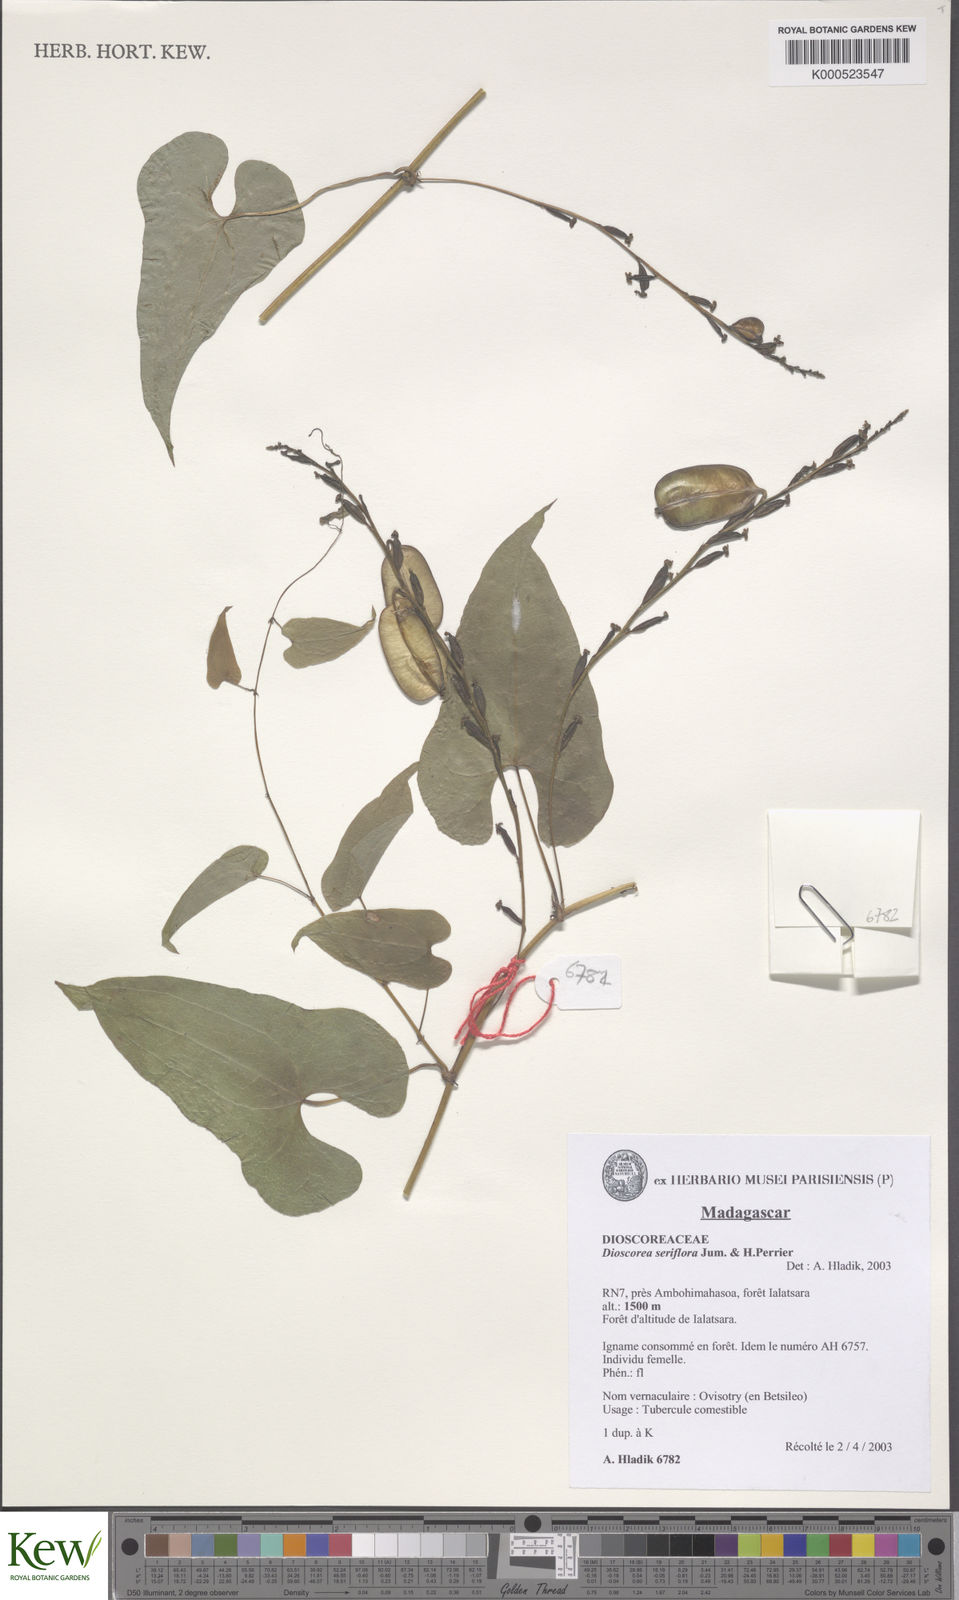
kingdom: Plantae
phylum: Tracheophyta
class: Liliopsida
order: Dioscoreales
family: Dioscoreaceae
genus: Dioscorea
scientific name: Dioscorea seriflora
